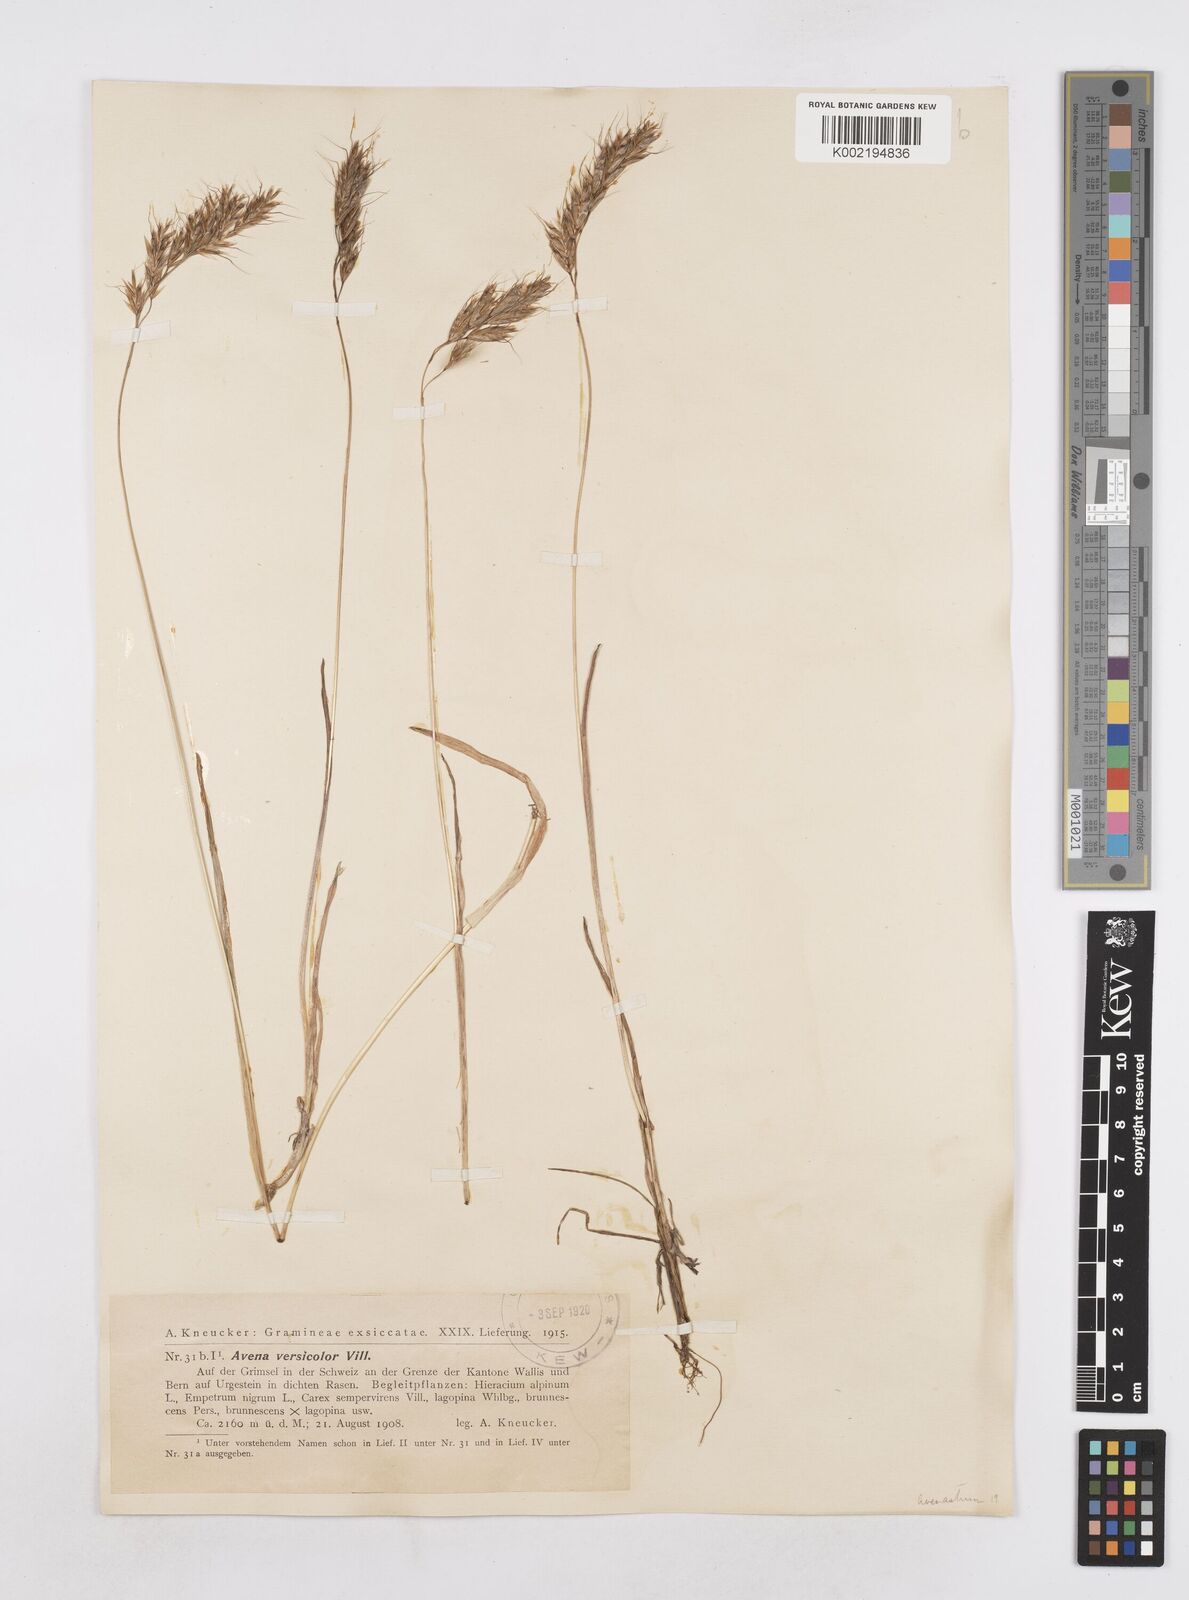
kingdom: Plantae
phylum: Tracheophyta
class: Liliopsida
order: Poales
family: Poaceae
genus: Helictotrichon
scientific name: Helictotrichon
